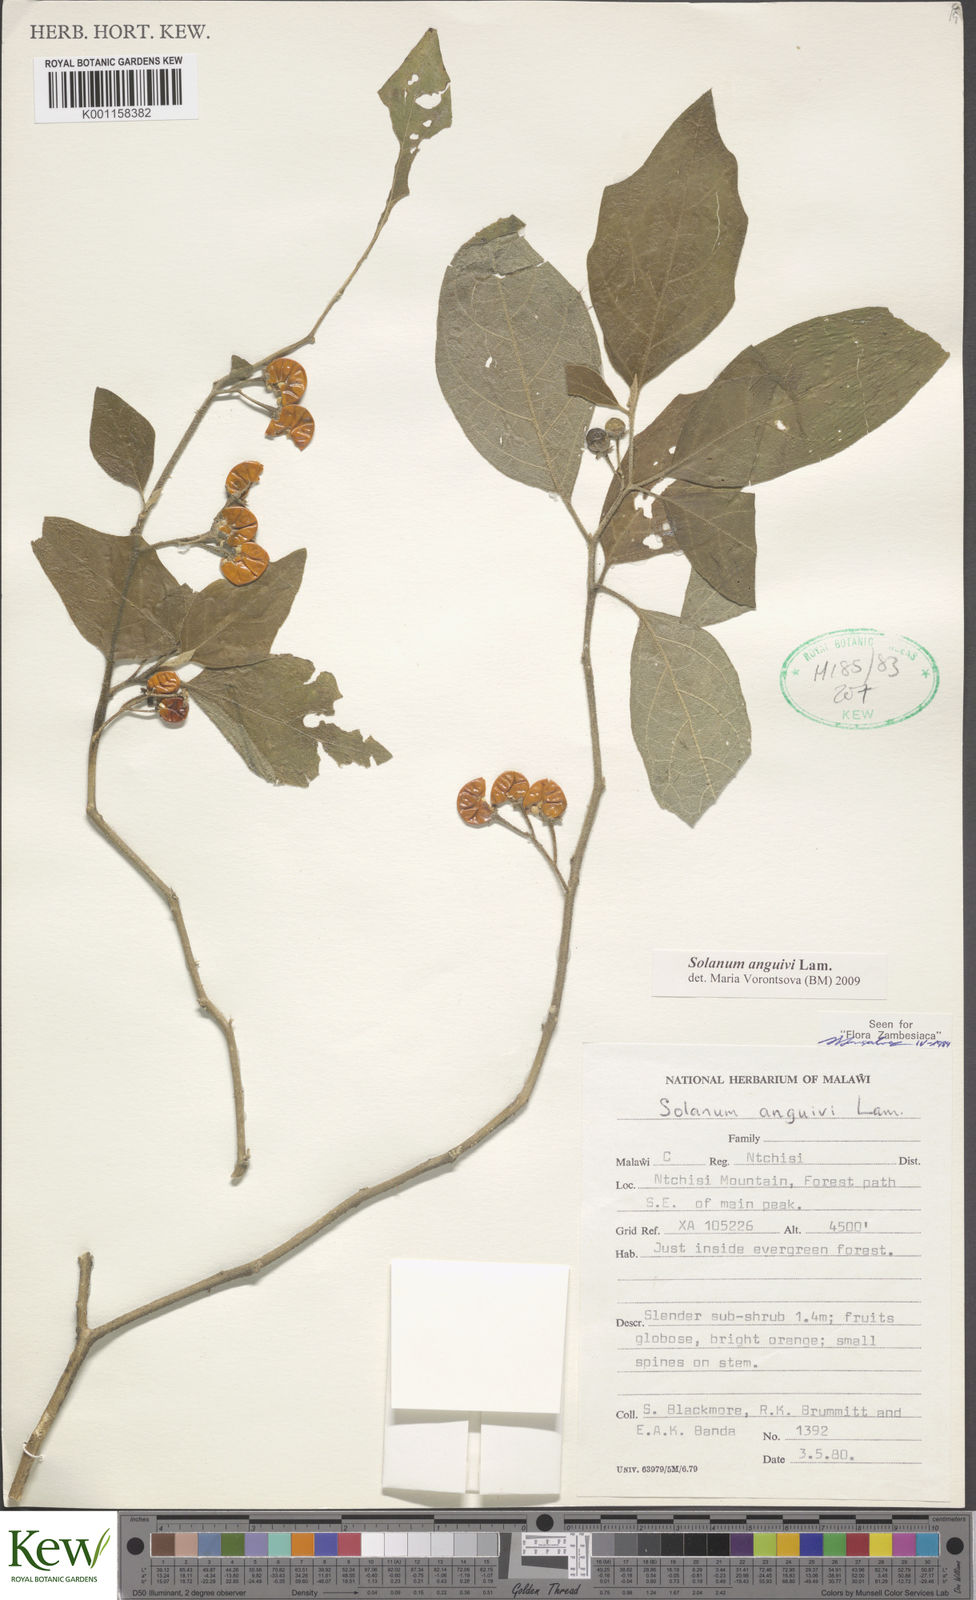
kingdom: Plantae
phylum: Tracheophyta
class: Magnoliopsida
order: Solanales
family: Solanaceae
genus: Solanum
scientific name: Solanum anguivi
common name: Forest bitterberry
